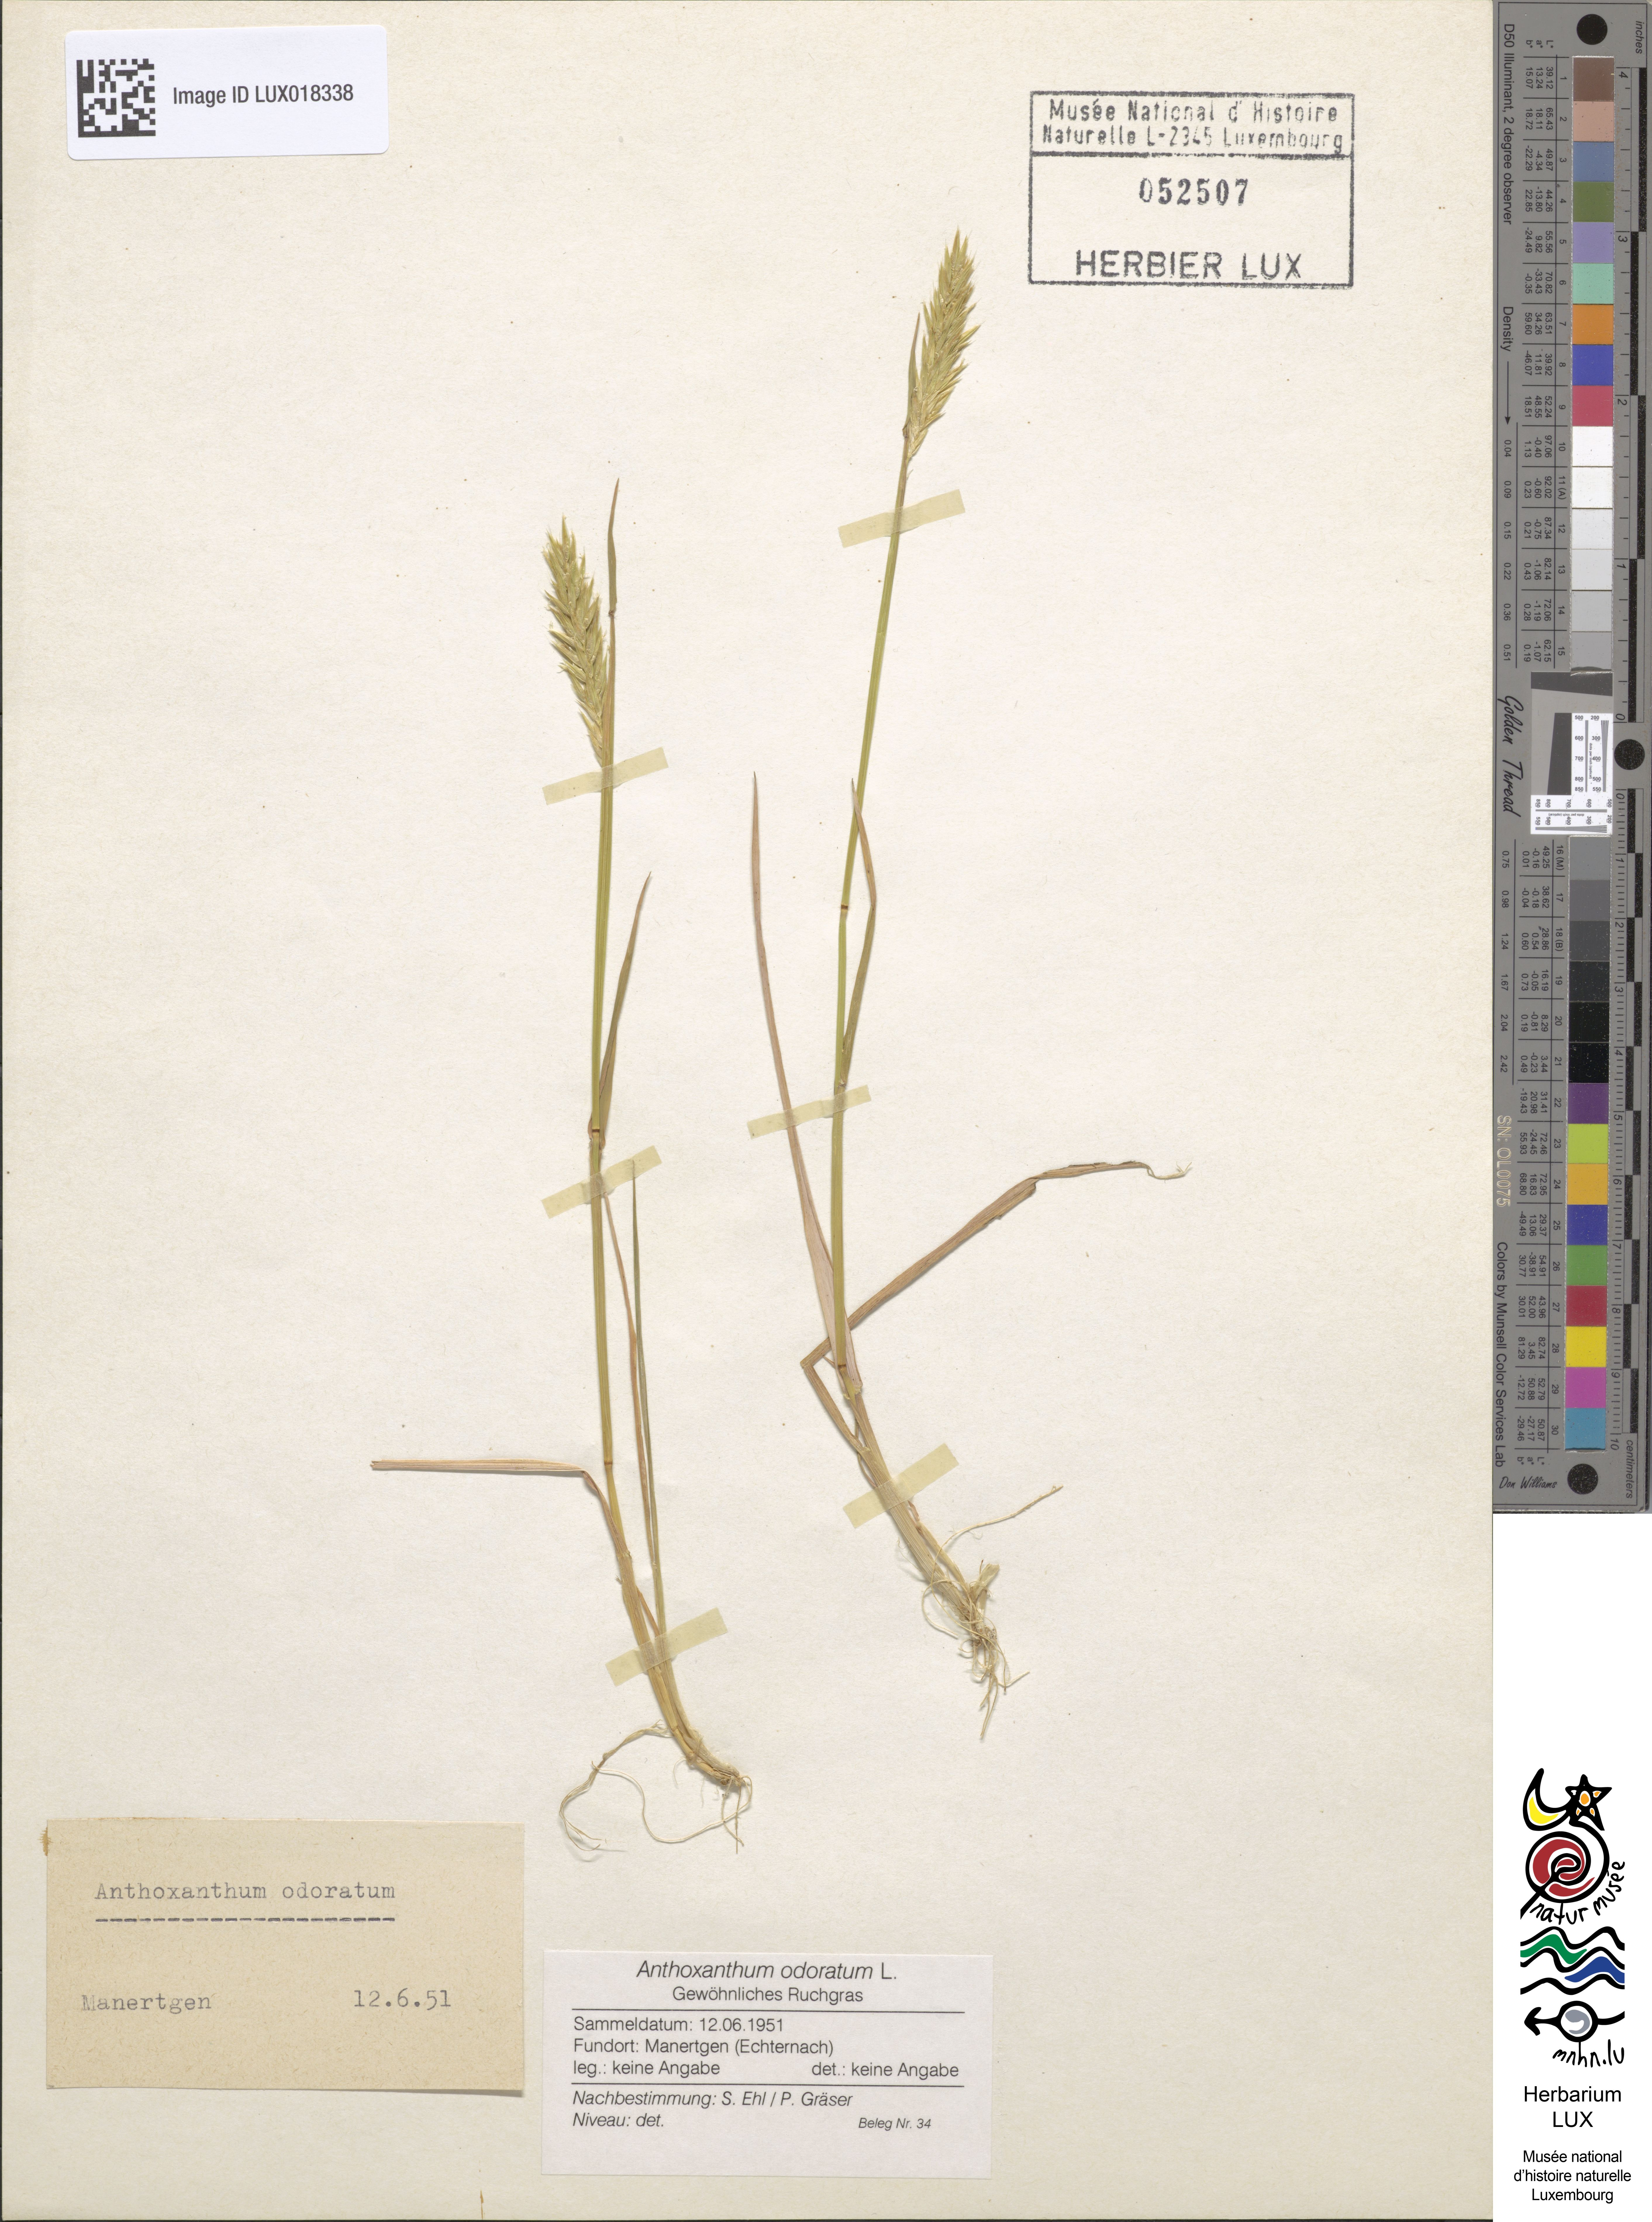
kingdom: Plantae
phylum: Tracheophyta
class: Liliopsida
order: Poales
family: Poaceae
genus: Anthoxanthum
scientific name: Anthoxanthum odoratum
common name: Sweet vernalgrass
